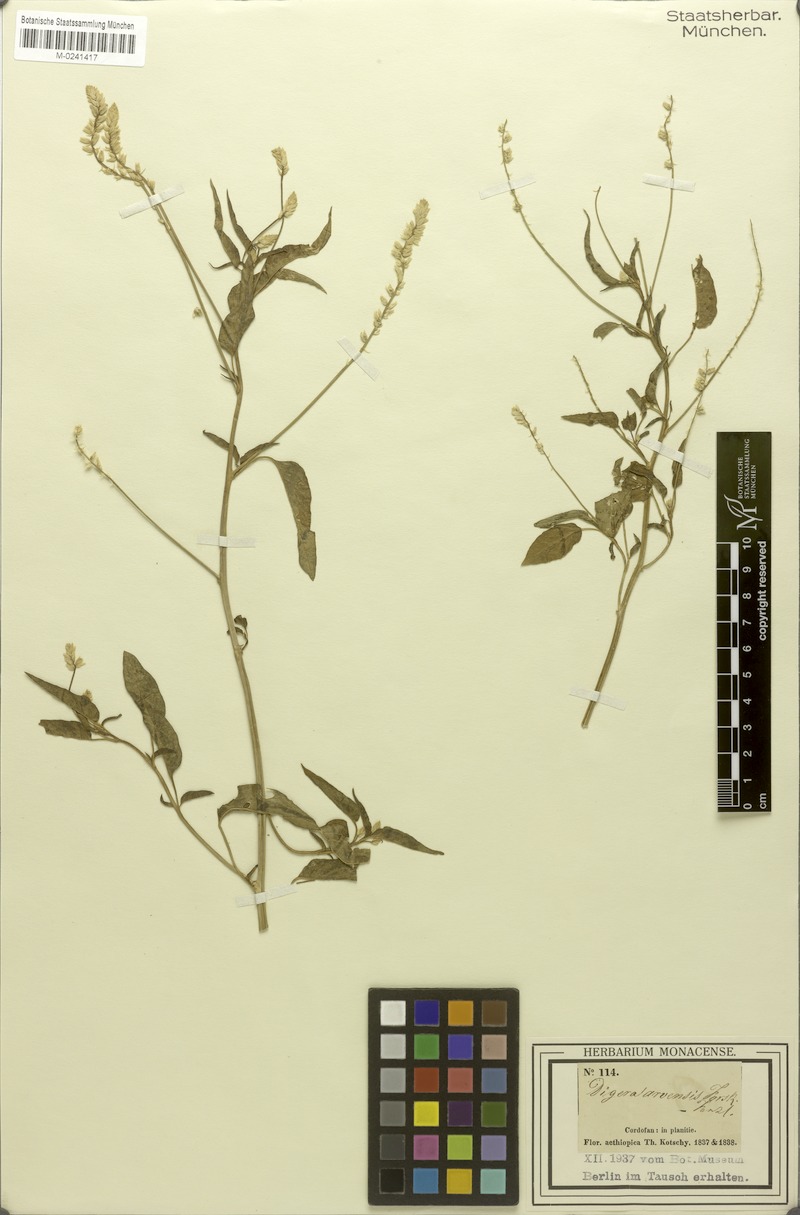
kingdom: Plantae
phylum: Tracheophyta
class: Magnoliopsida
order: Caryophyllales
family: Amaranthaceae
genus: Digera
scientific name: Digera muricata
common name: False amaranth
